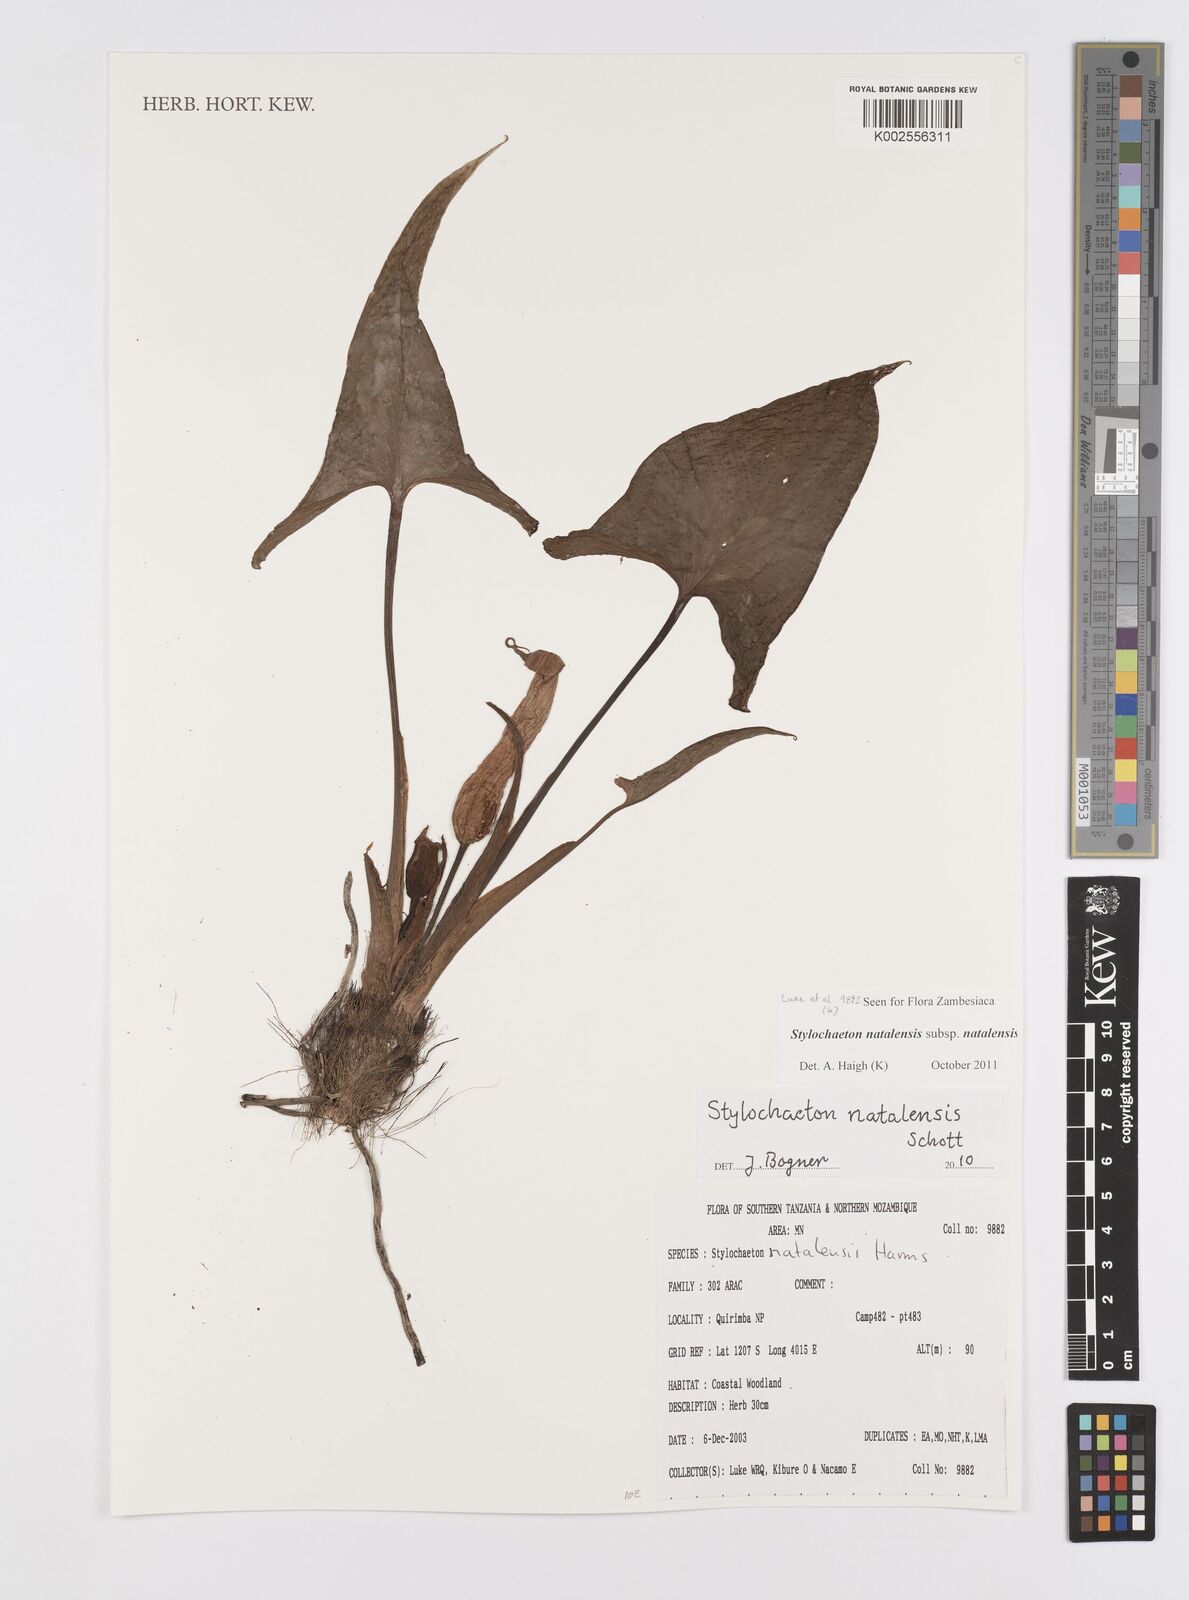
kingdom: Plantae
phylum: Tracheophyta
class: Liliopsida
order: Alismatales
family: Araceae
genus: Stylochaeton
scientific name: Stylochaeton natalense
